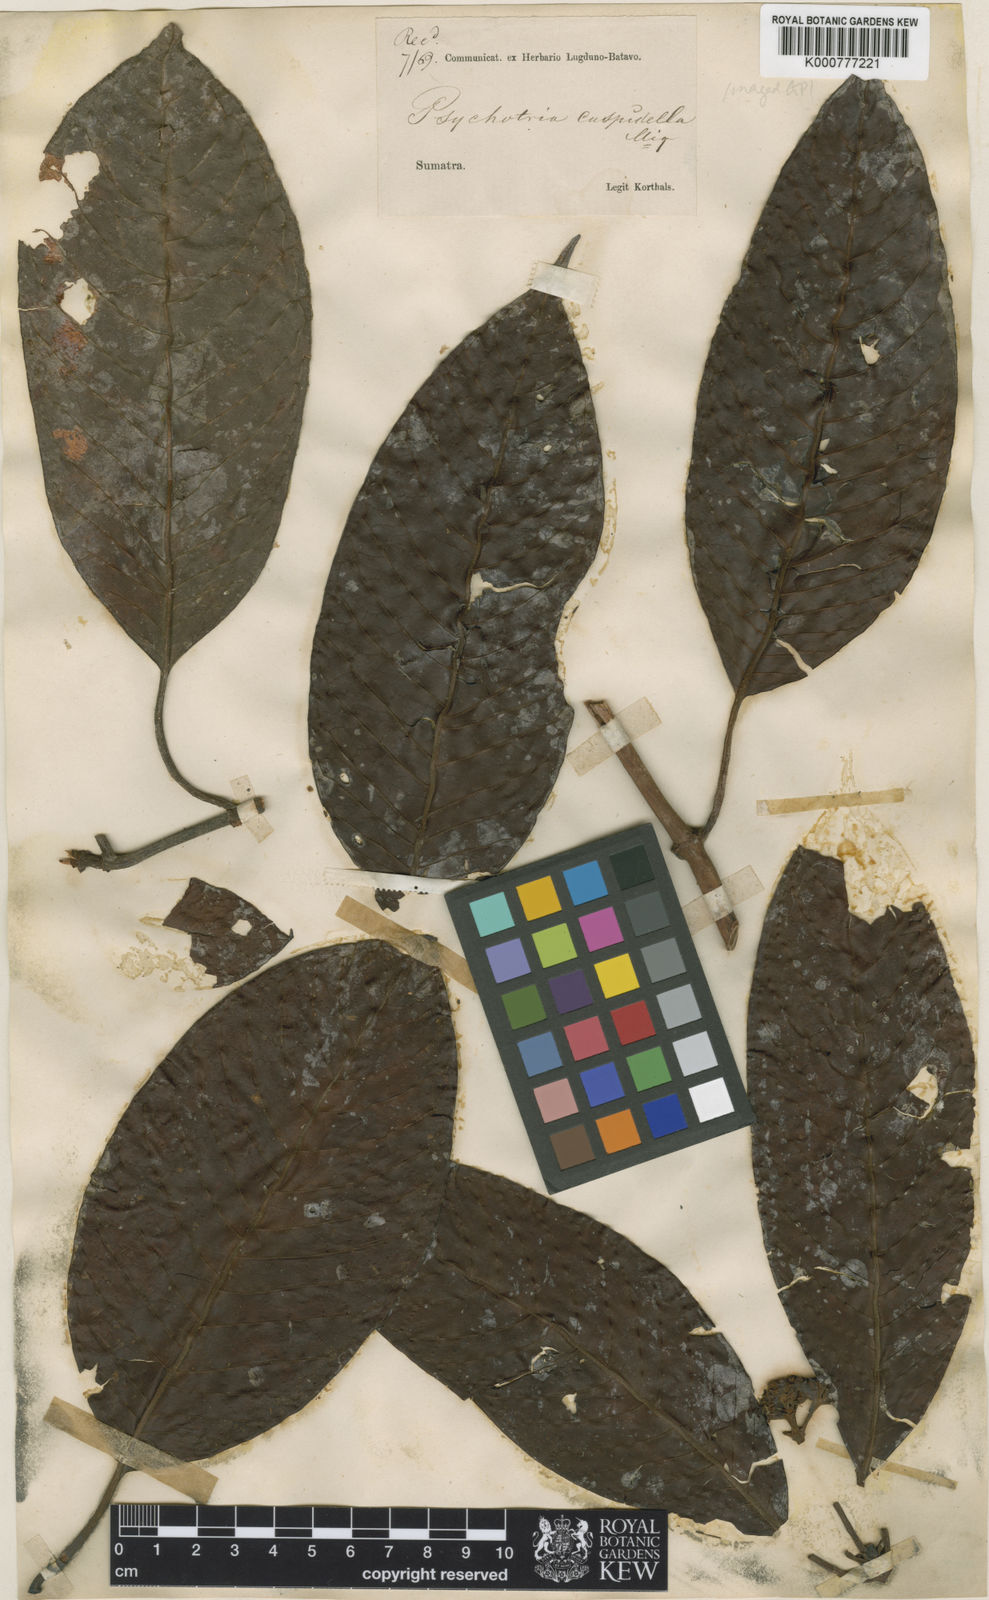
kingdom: Plantae
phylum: Tracheophyta
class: Magnoliopsida
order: Gentianales
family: Rubiaceae
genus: Psychotria
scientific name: Psychotria cuspidella
